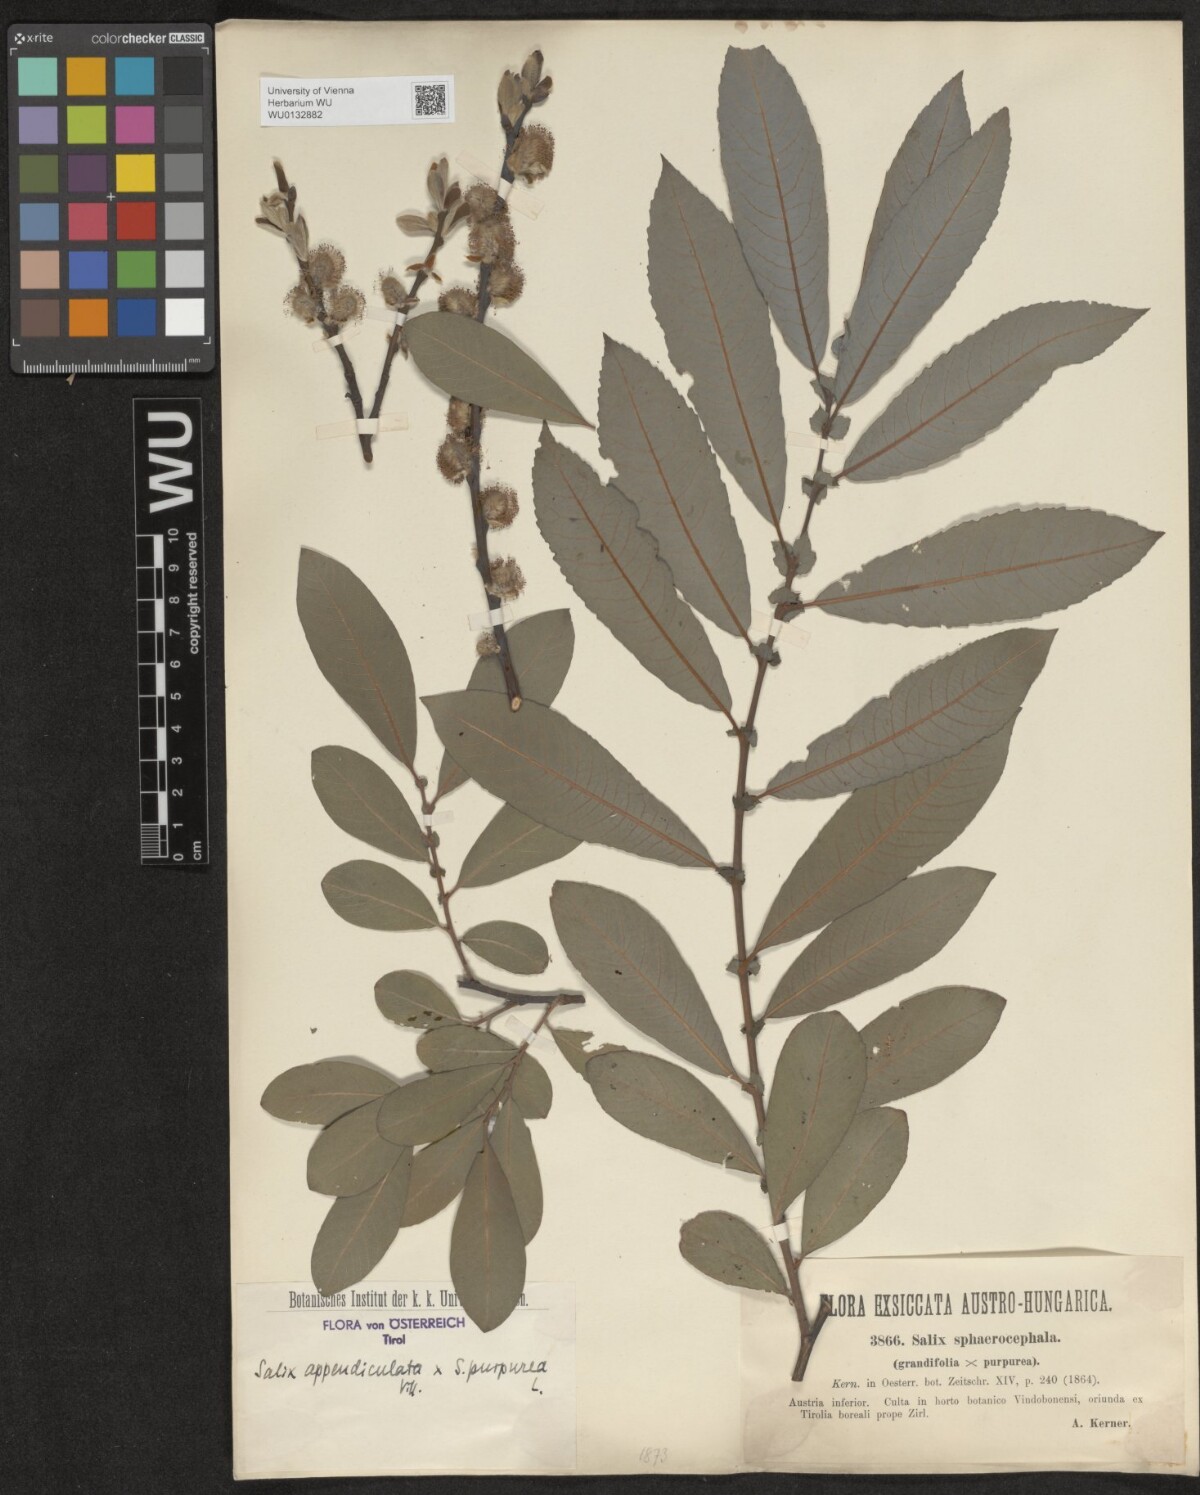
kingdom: Plantae
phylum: Tracheophyta
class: Magnoliopsida
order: Malpighiales
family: Salicaceae
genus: Salix
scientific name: Salix austriaca
